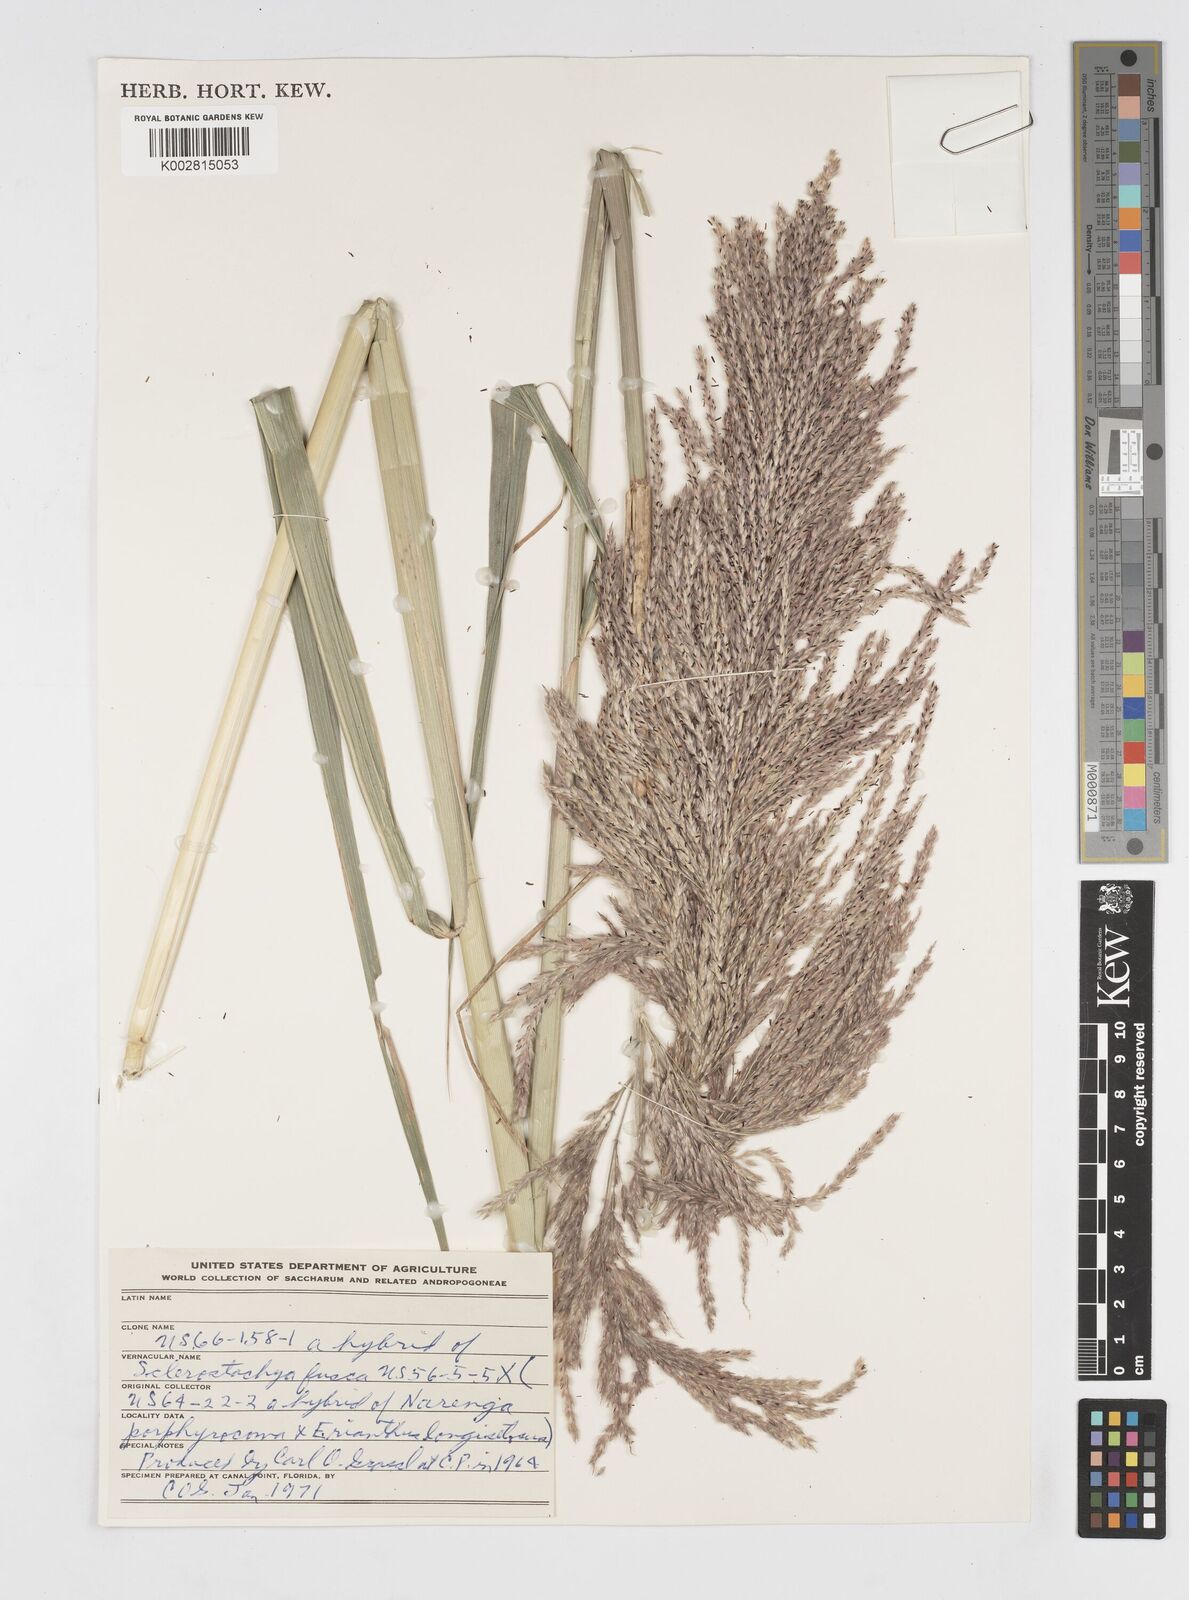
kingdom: Plantae
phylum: Tracheophyta
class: Liliopsida
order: Poales
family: Poaceae
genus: Saccharum
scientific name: Saccharum
